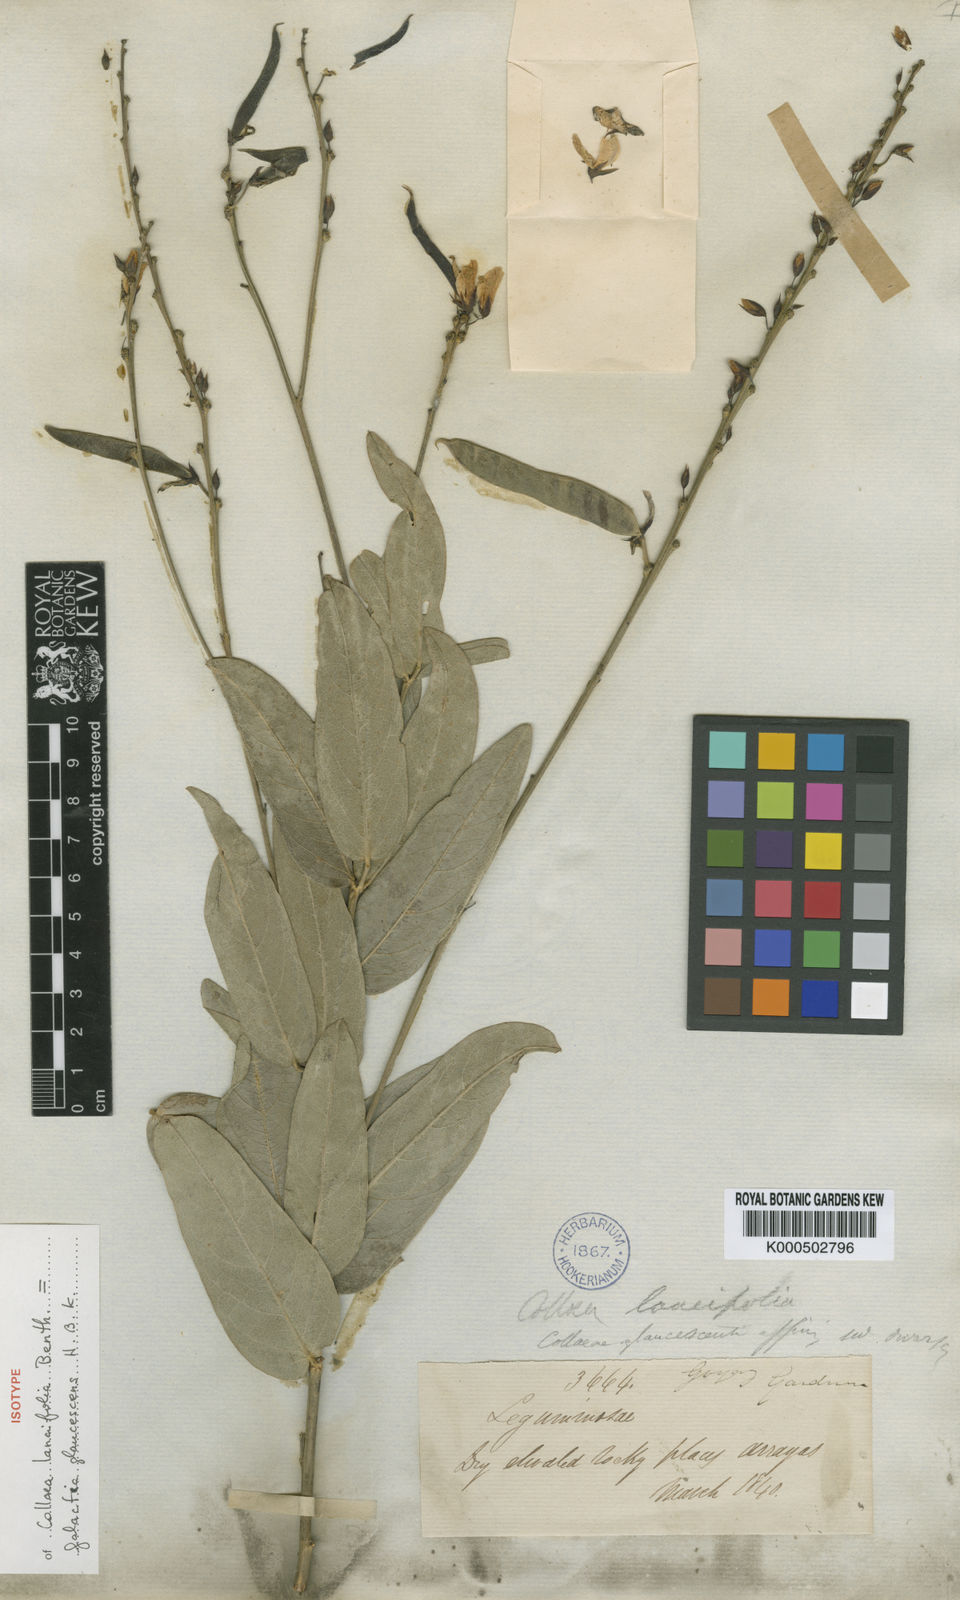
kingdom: Plantae
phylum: Tracheophyta
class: Magnoliopsida
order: Fabales
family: Fabaceae
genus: Galactia
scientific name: Galactia
